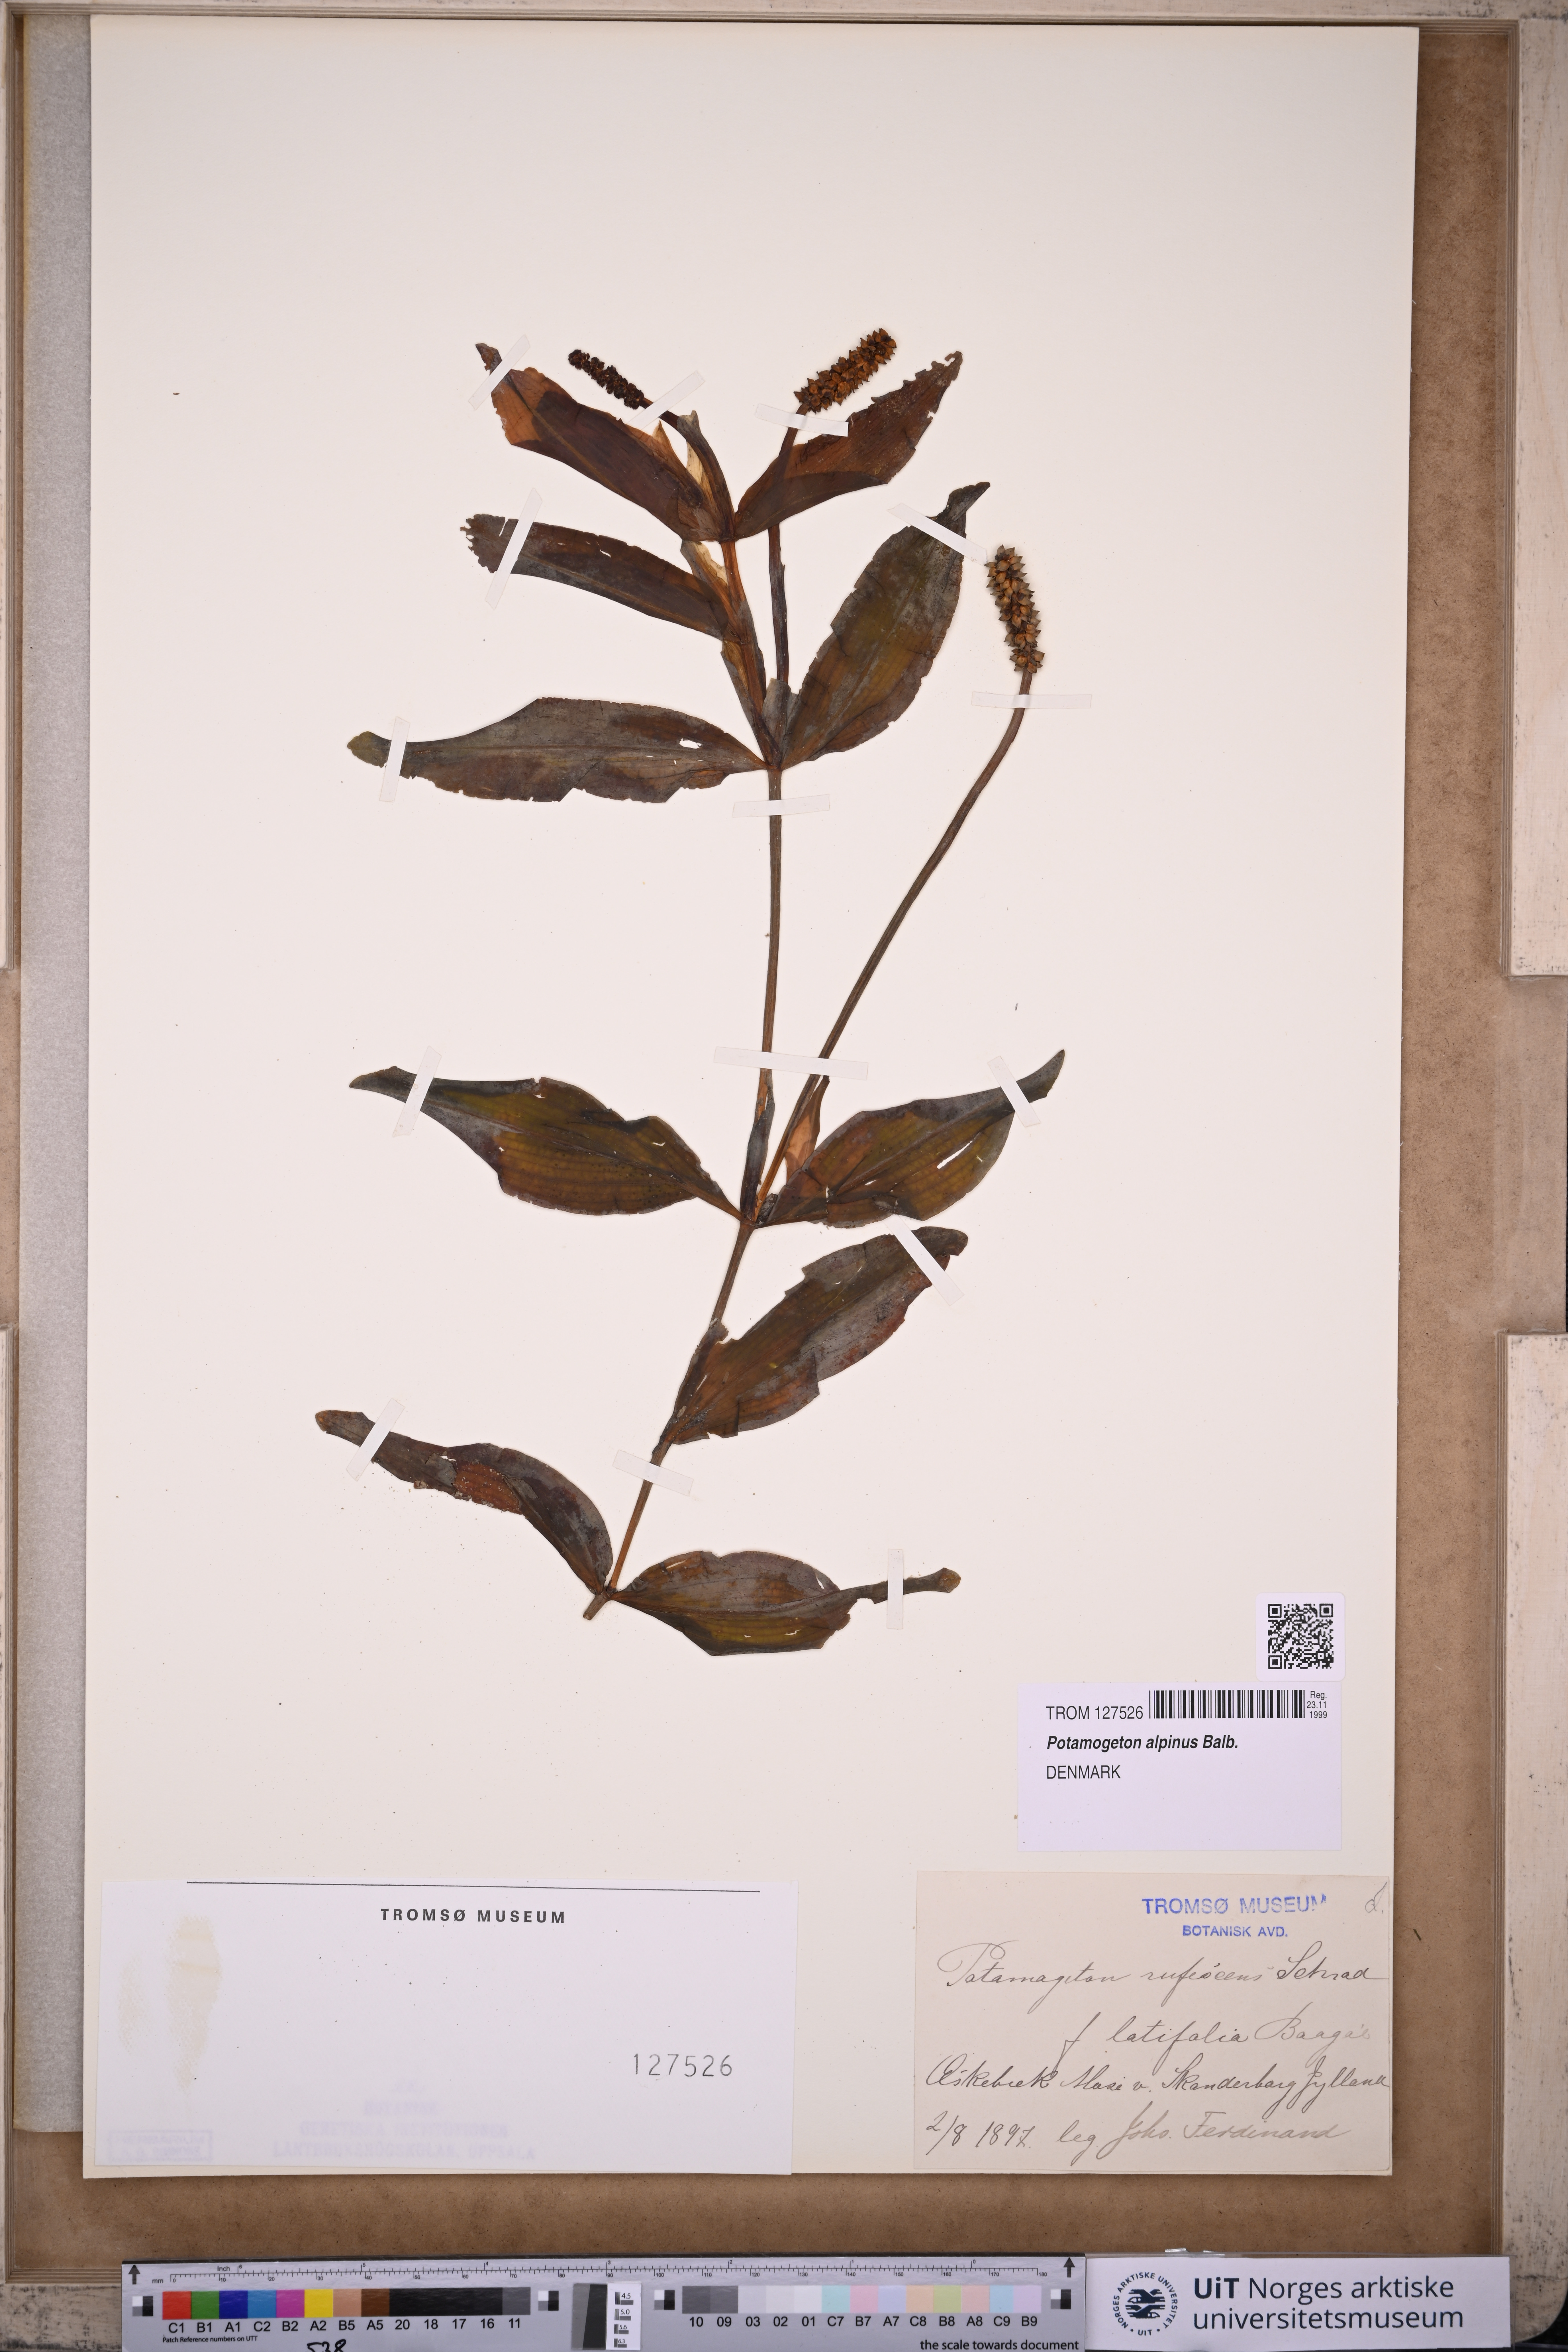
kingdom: Plantae
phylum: Tracheophyta
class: Liliopsida
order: Alismatales
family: Potamogetonaceae
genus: Potamogeton
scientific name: Potamogeton alpinus
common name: Red pondweed
